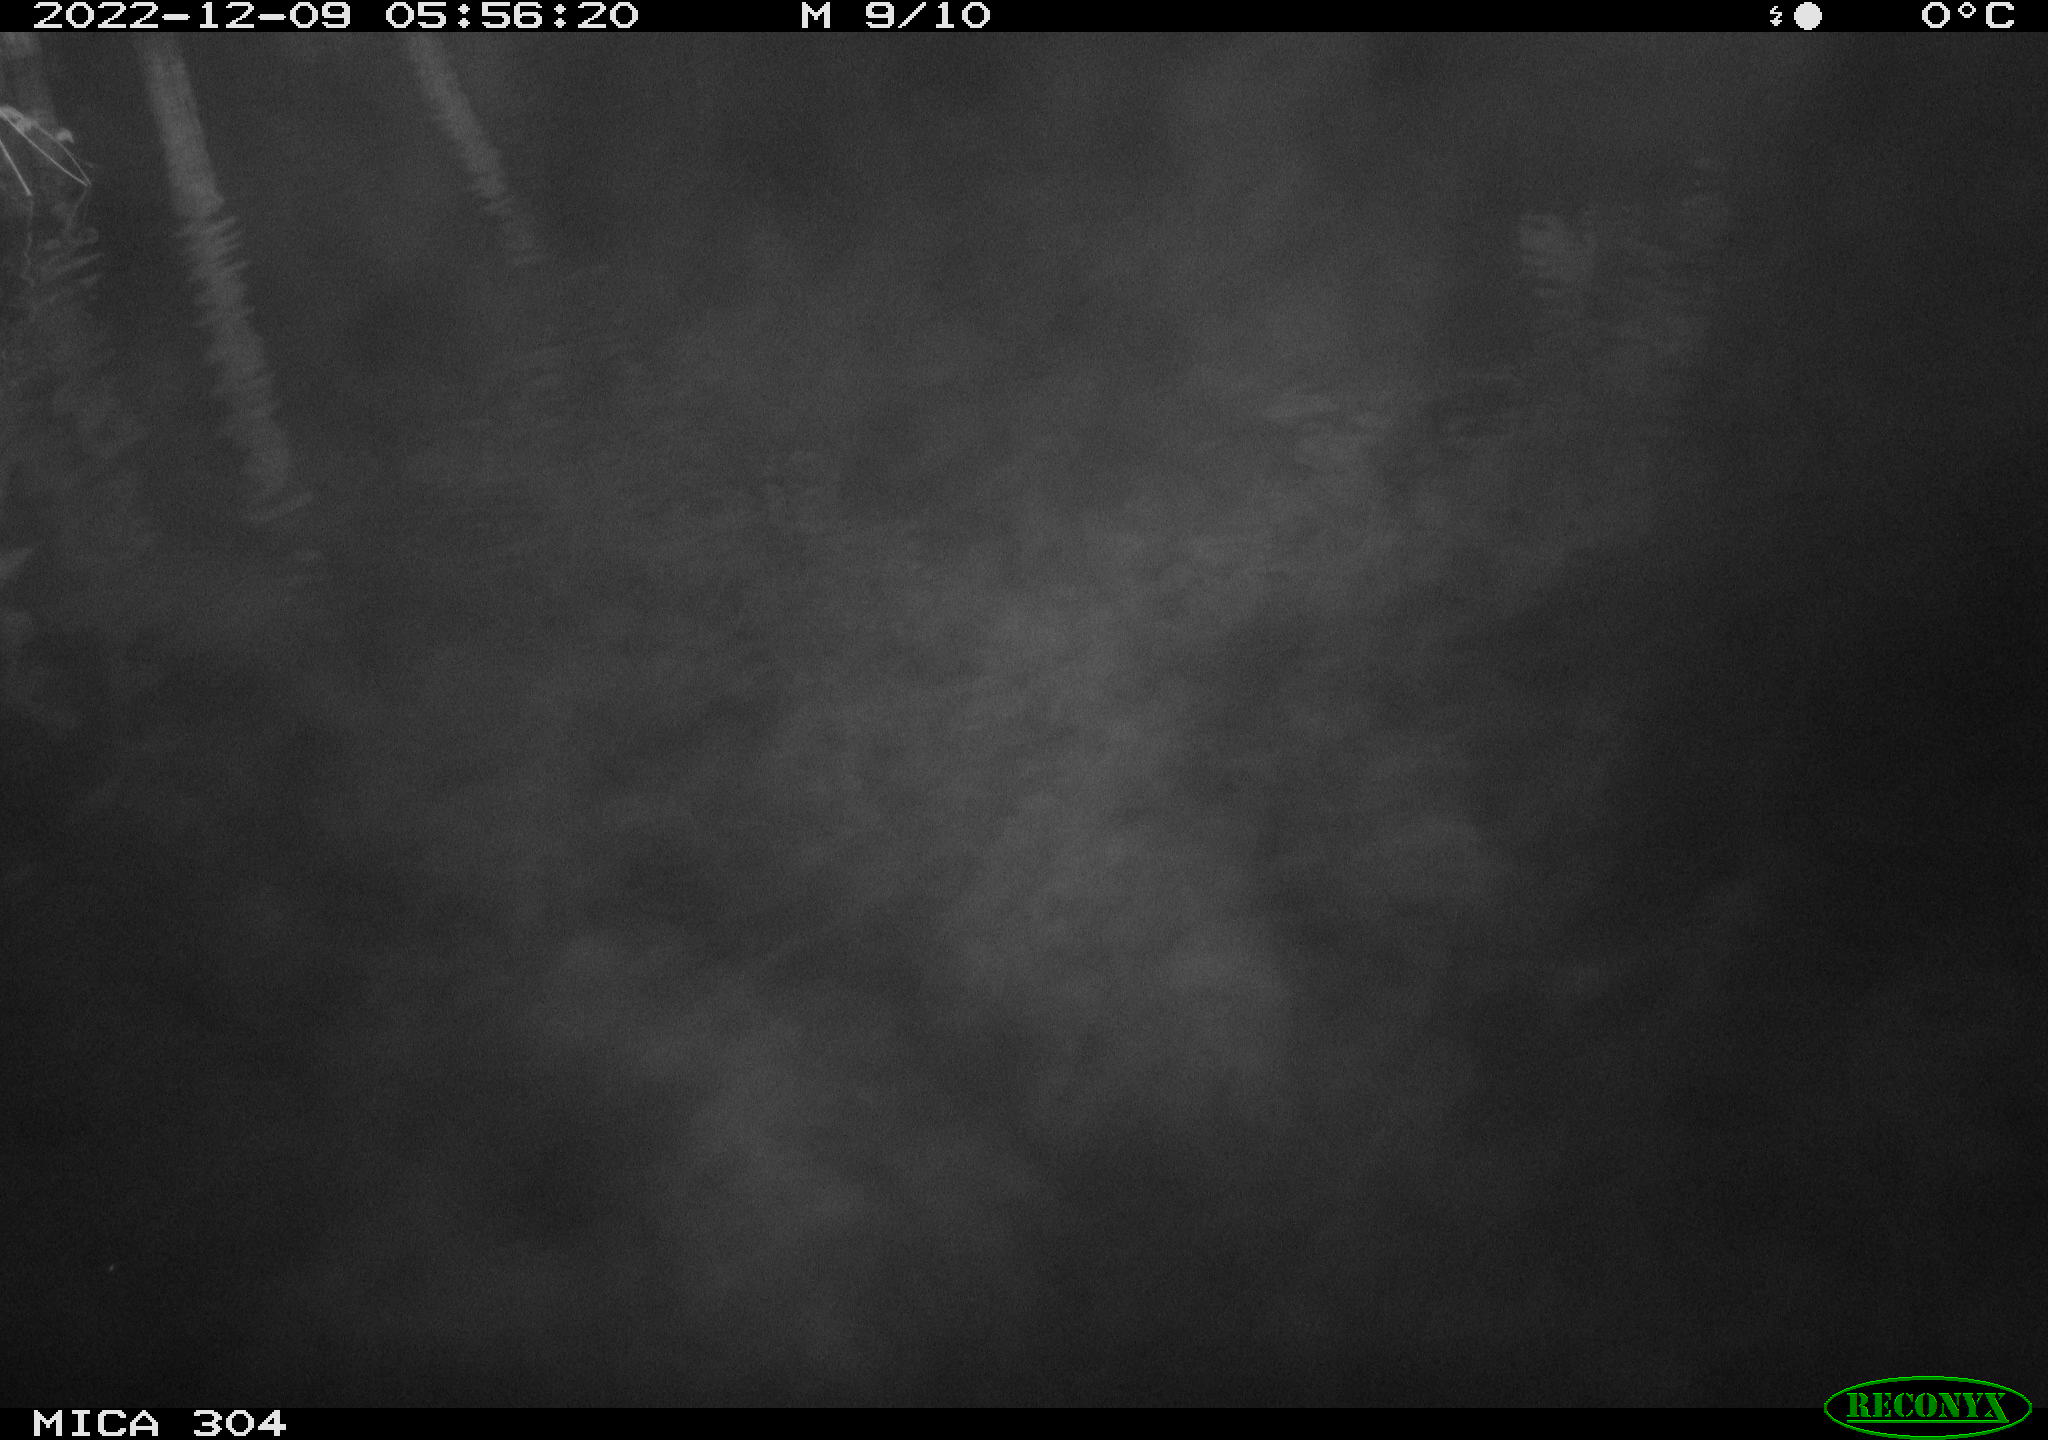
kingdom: Animalia
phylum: Chordata
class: Aves
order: Anseriformes
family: Anatidae
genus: Anas
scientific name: Anas
